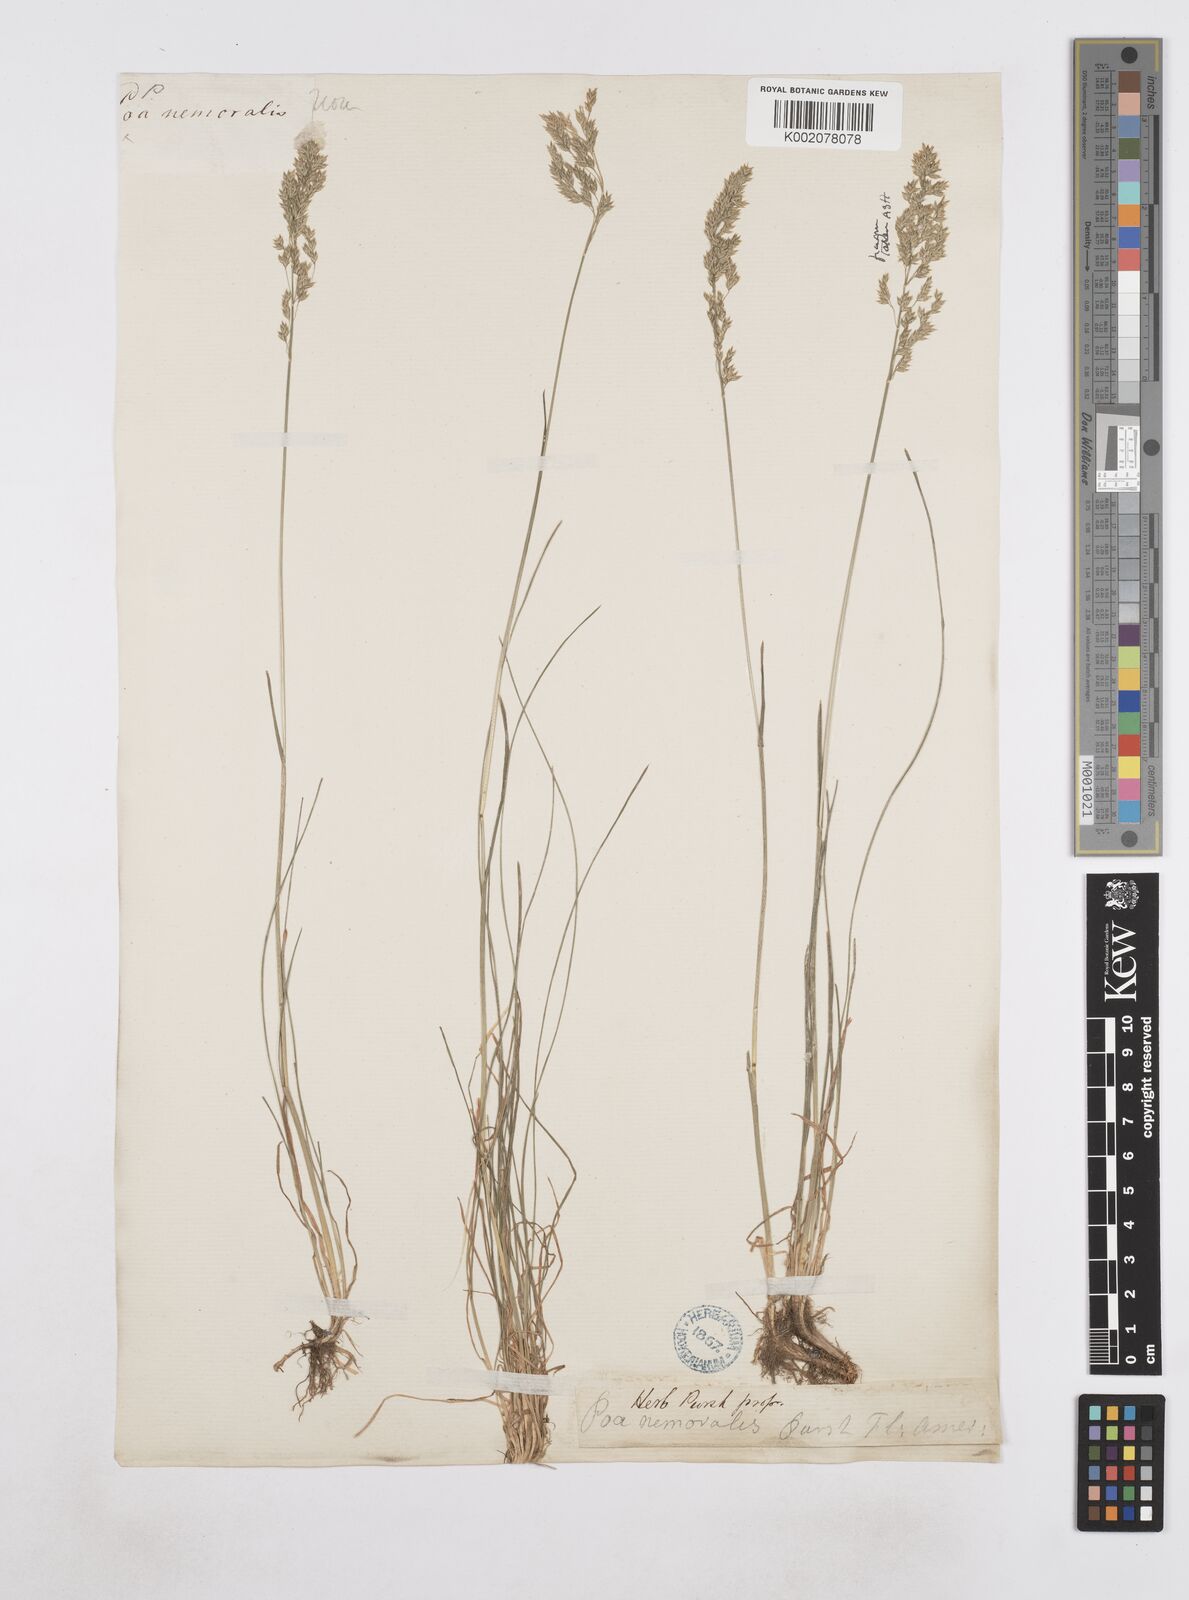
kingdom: Plantae
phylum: Tracheophyta
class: Liliopsida
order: Poales
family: Poaceae
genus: Poa
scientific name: Poa
